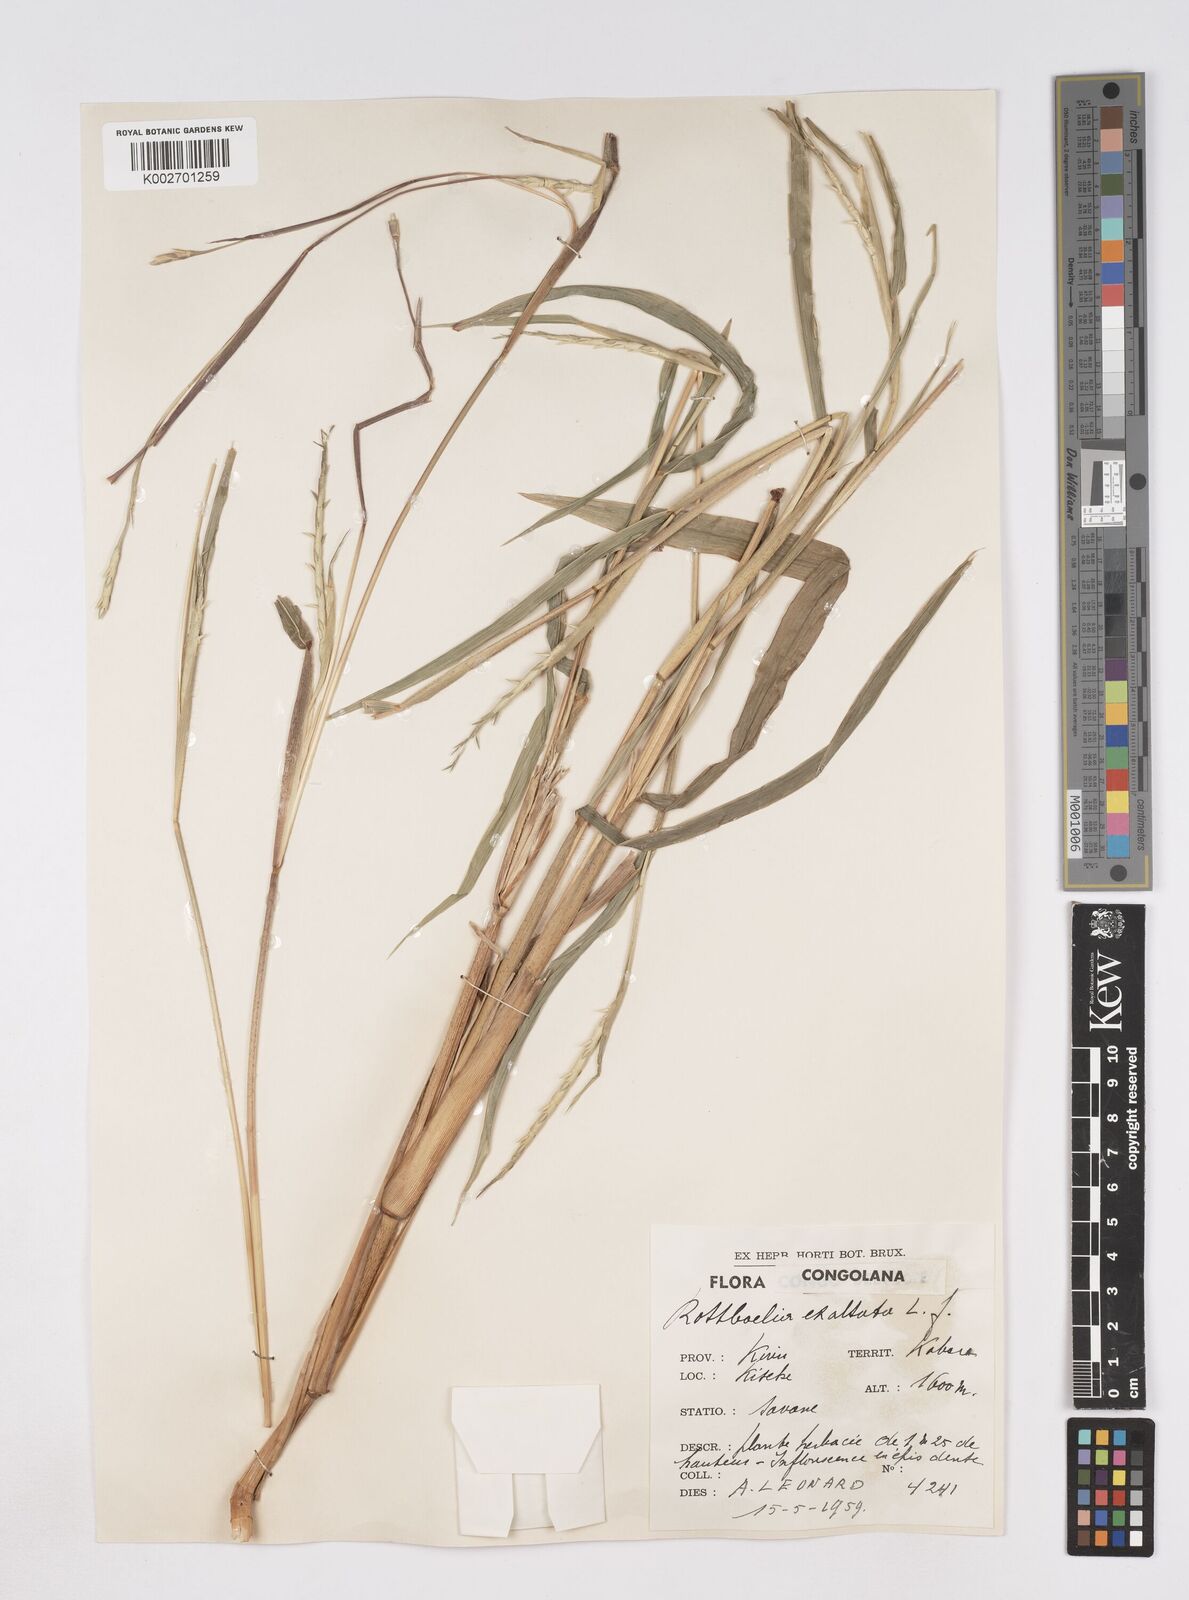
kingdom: Plantae
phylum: Tracheophyta
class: Liliopsida
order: Poales
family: Poaceae
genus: Rottboellia
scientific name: Rottboellia
